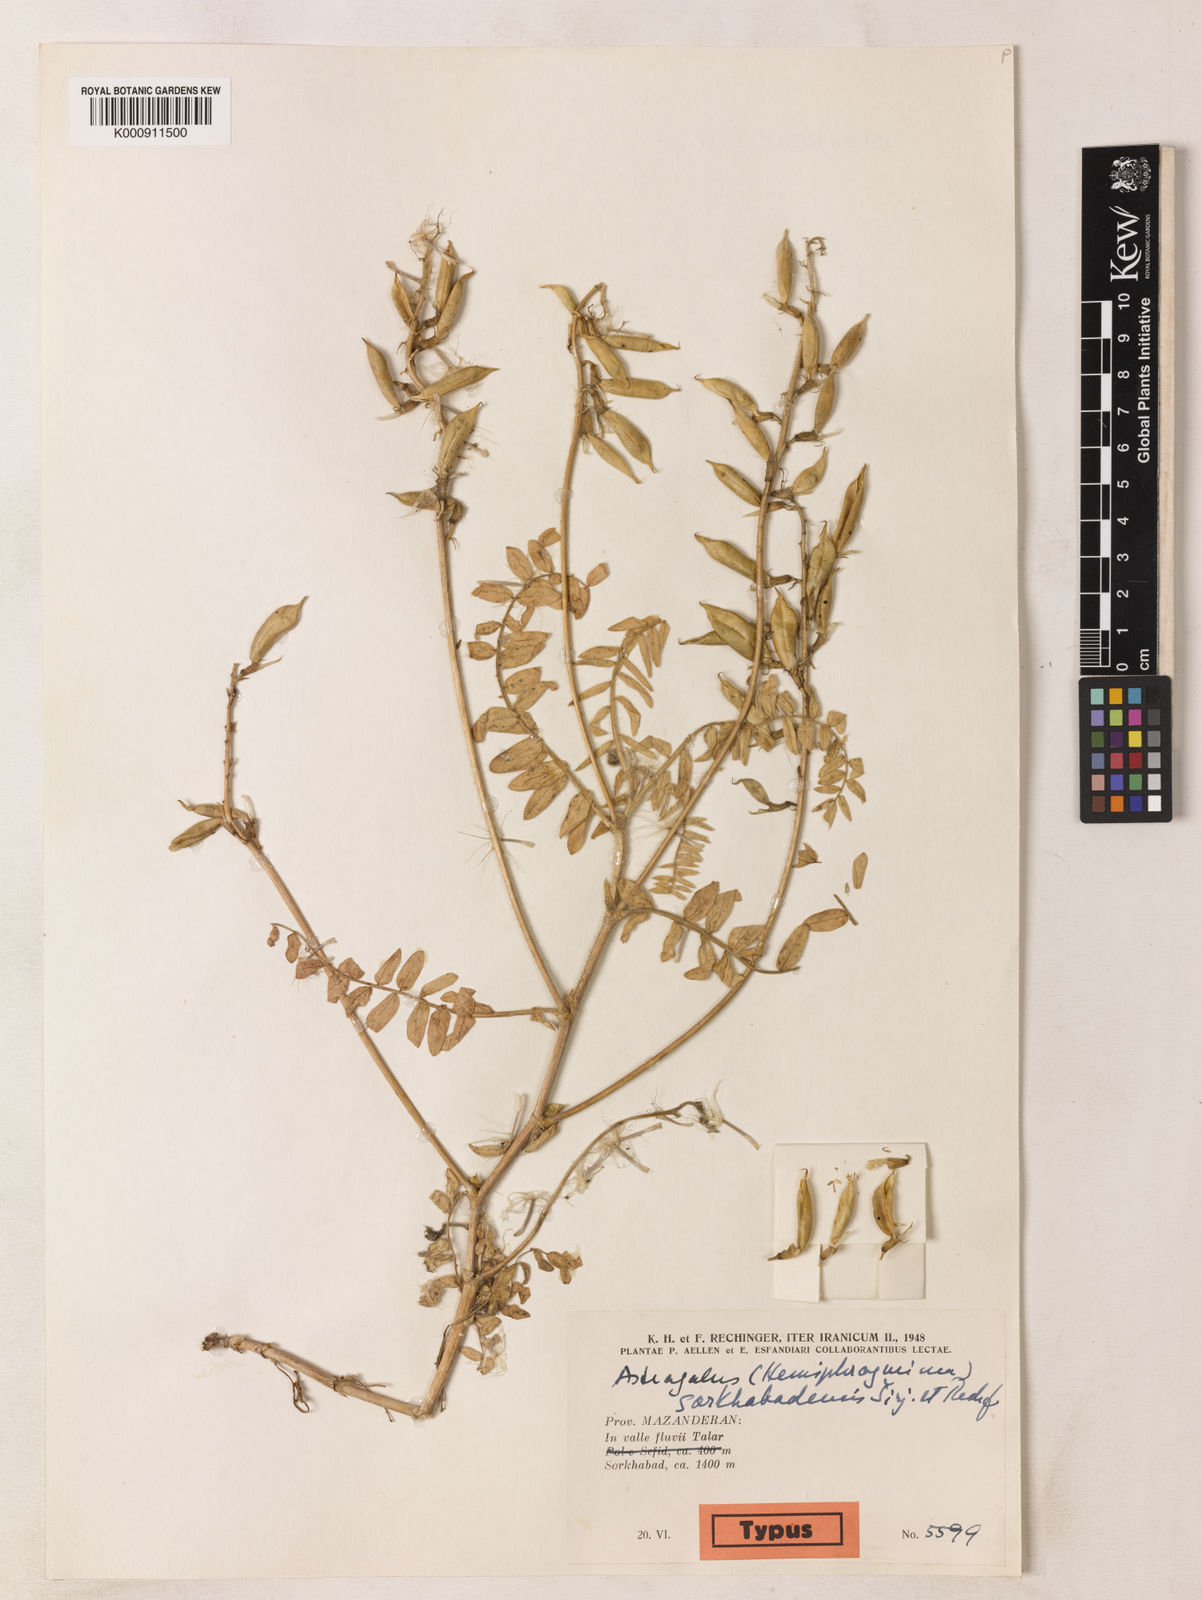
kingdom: Plantae
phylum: Tracheophyta
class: Magnoliopsida
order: Fabales
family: Fabaceae
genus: Astragalus
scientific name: Astragalus
